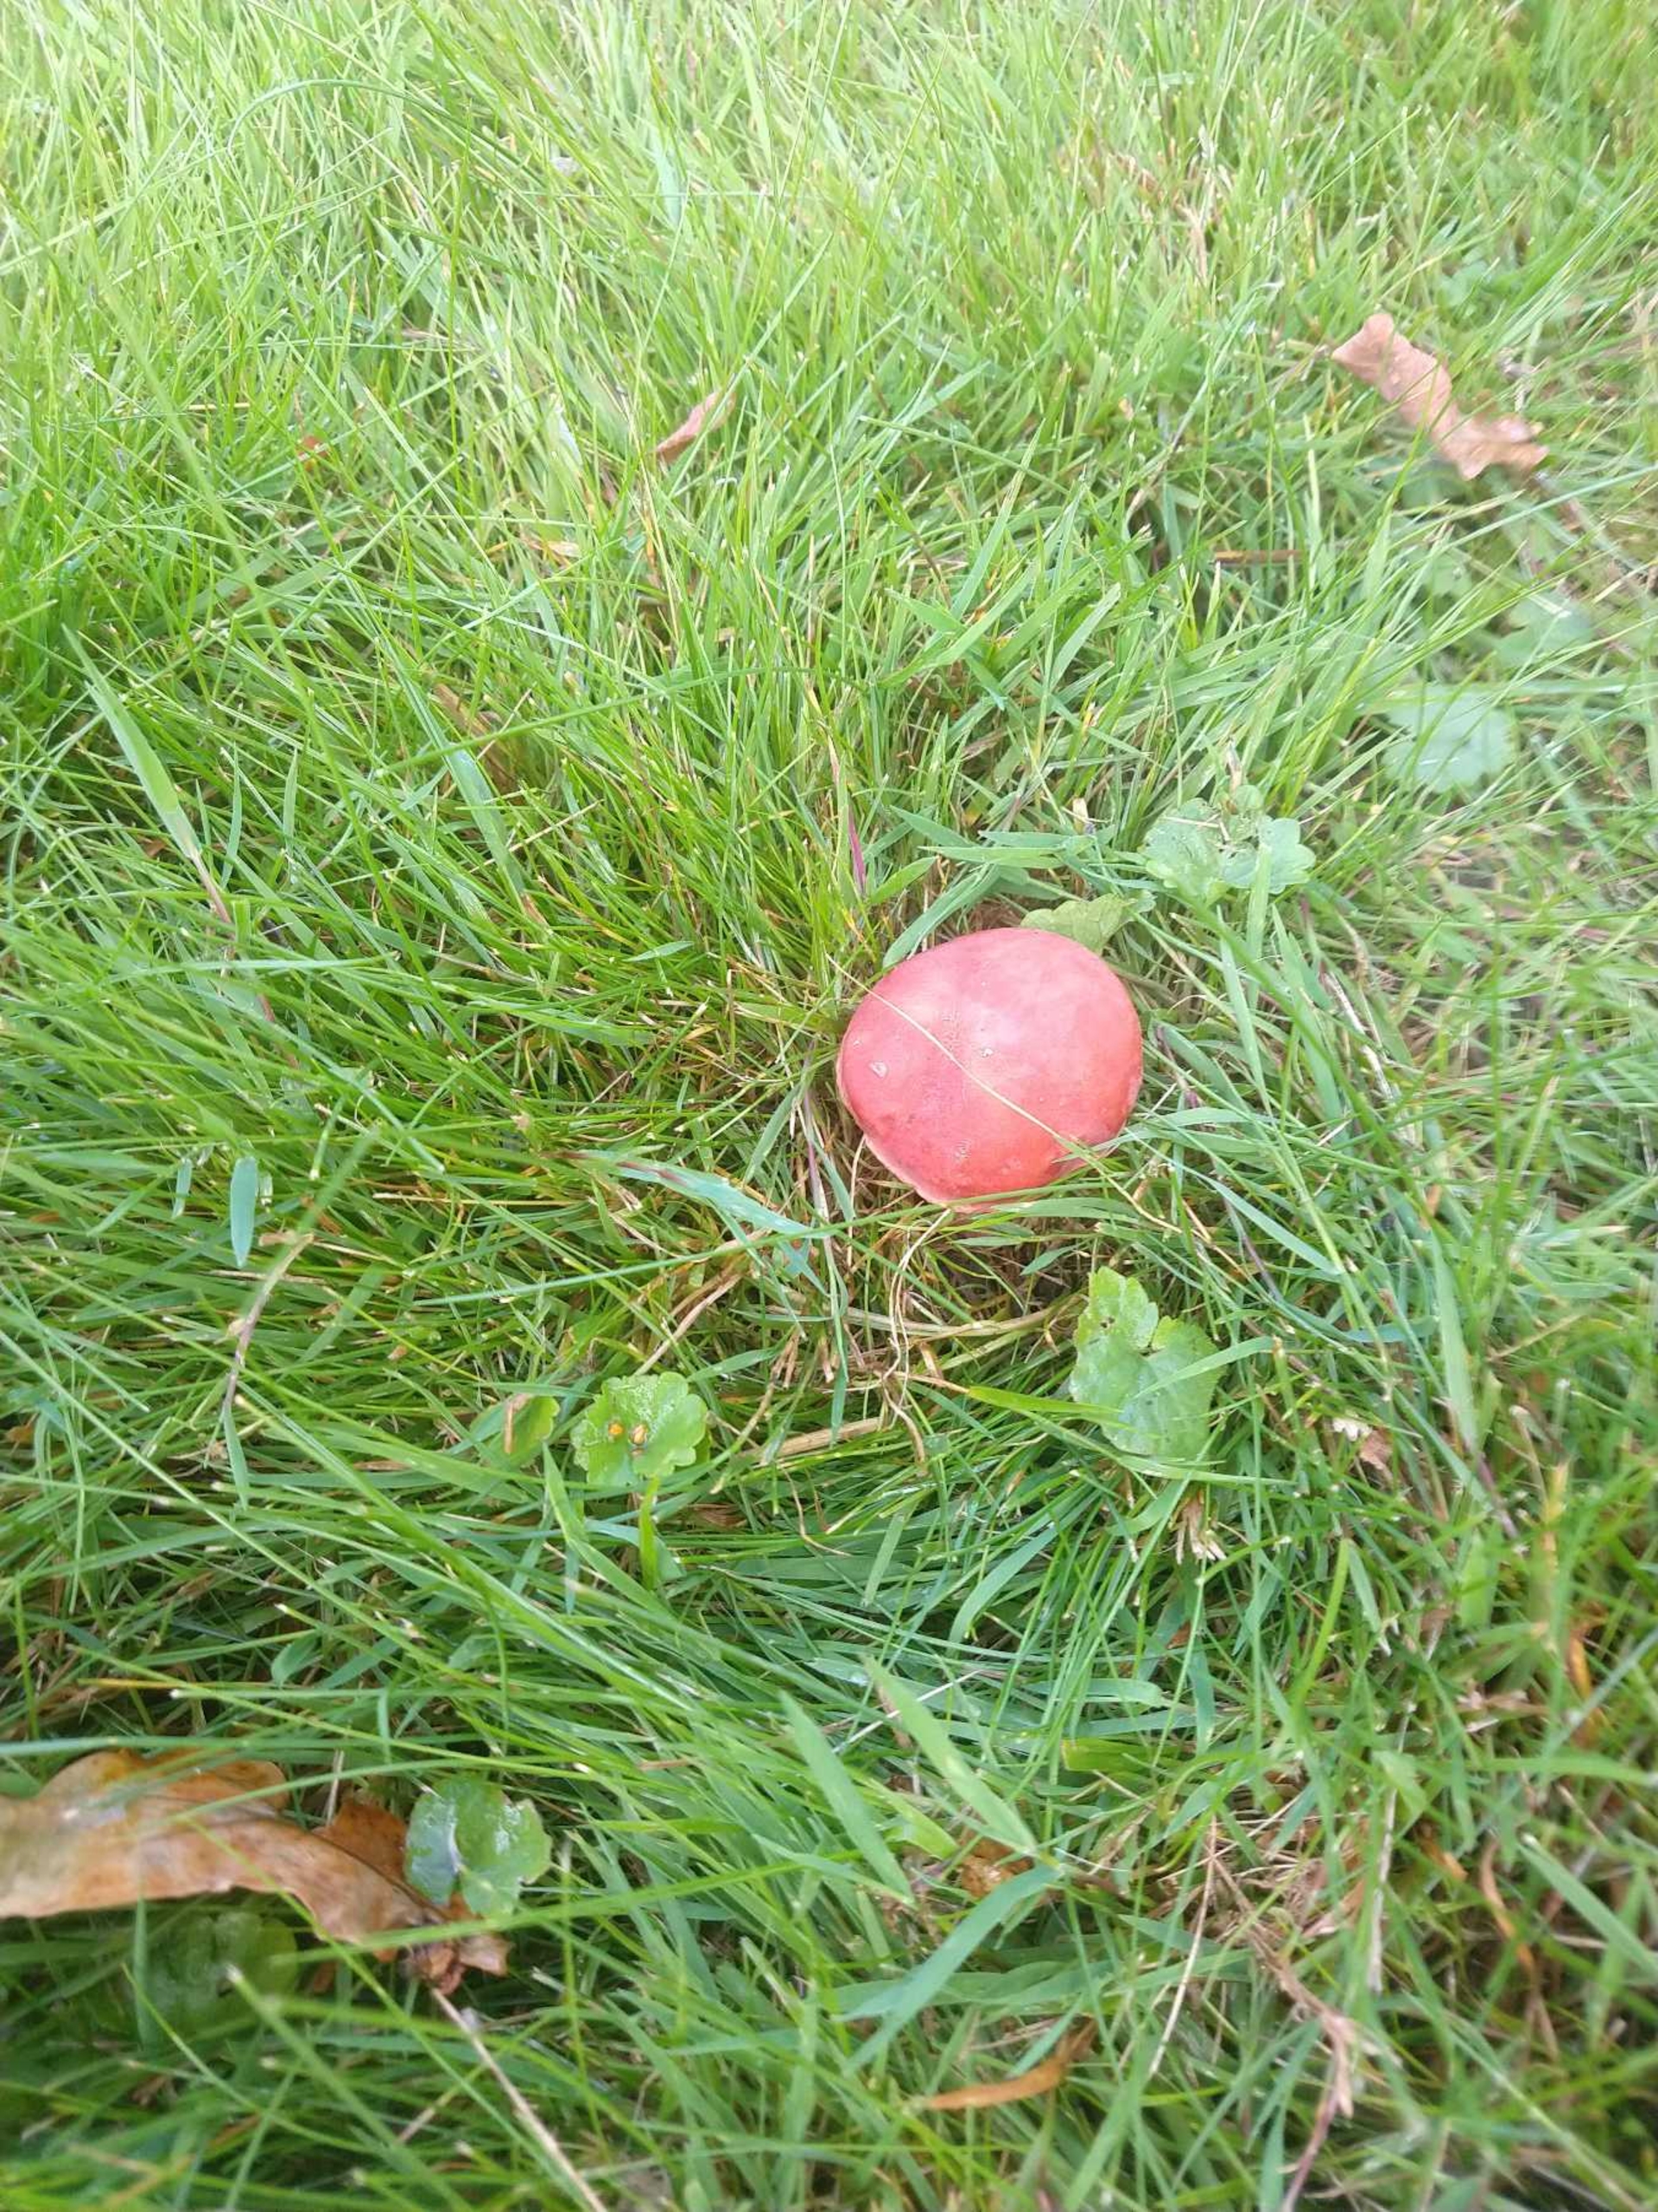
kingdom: Fungi
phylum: Basidiomycota
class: Agaricomycetes
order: Boletales
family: Boletaceae
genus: Hortiboletus
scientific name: Hortiboletus rubellus
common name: Blodrød rørhat
